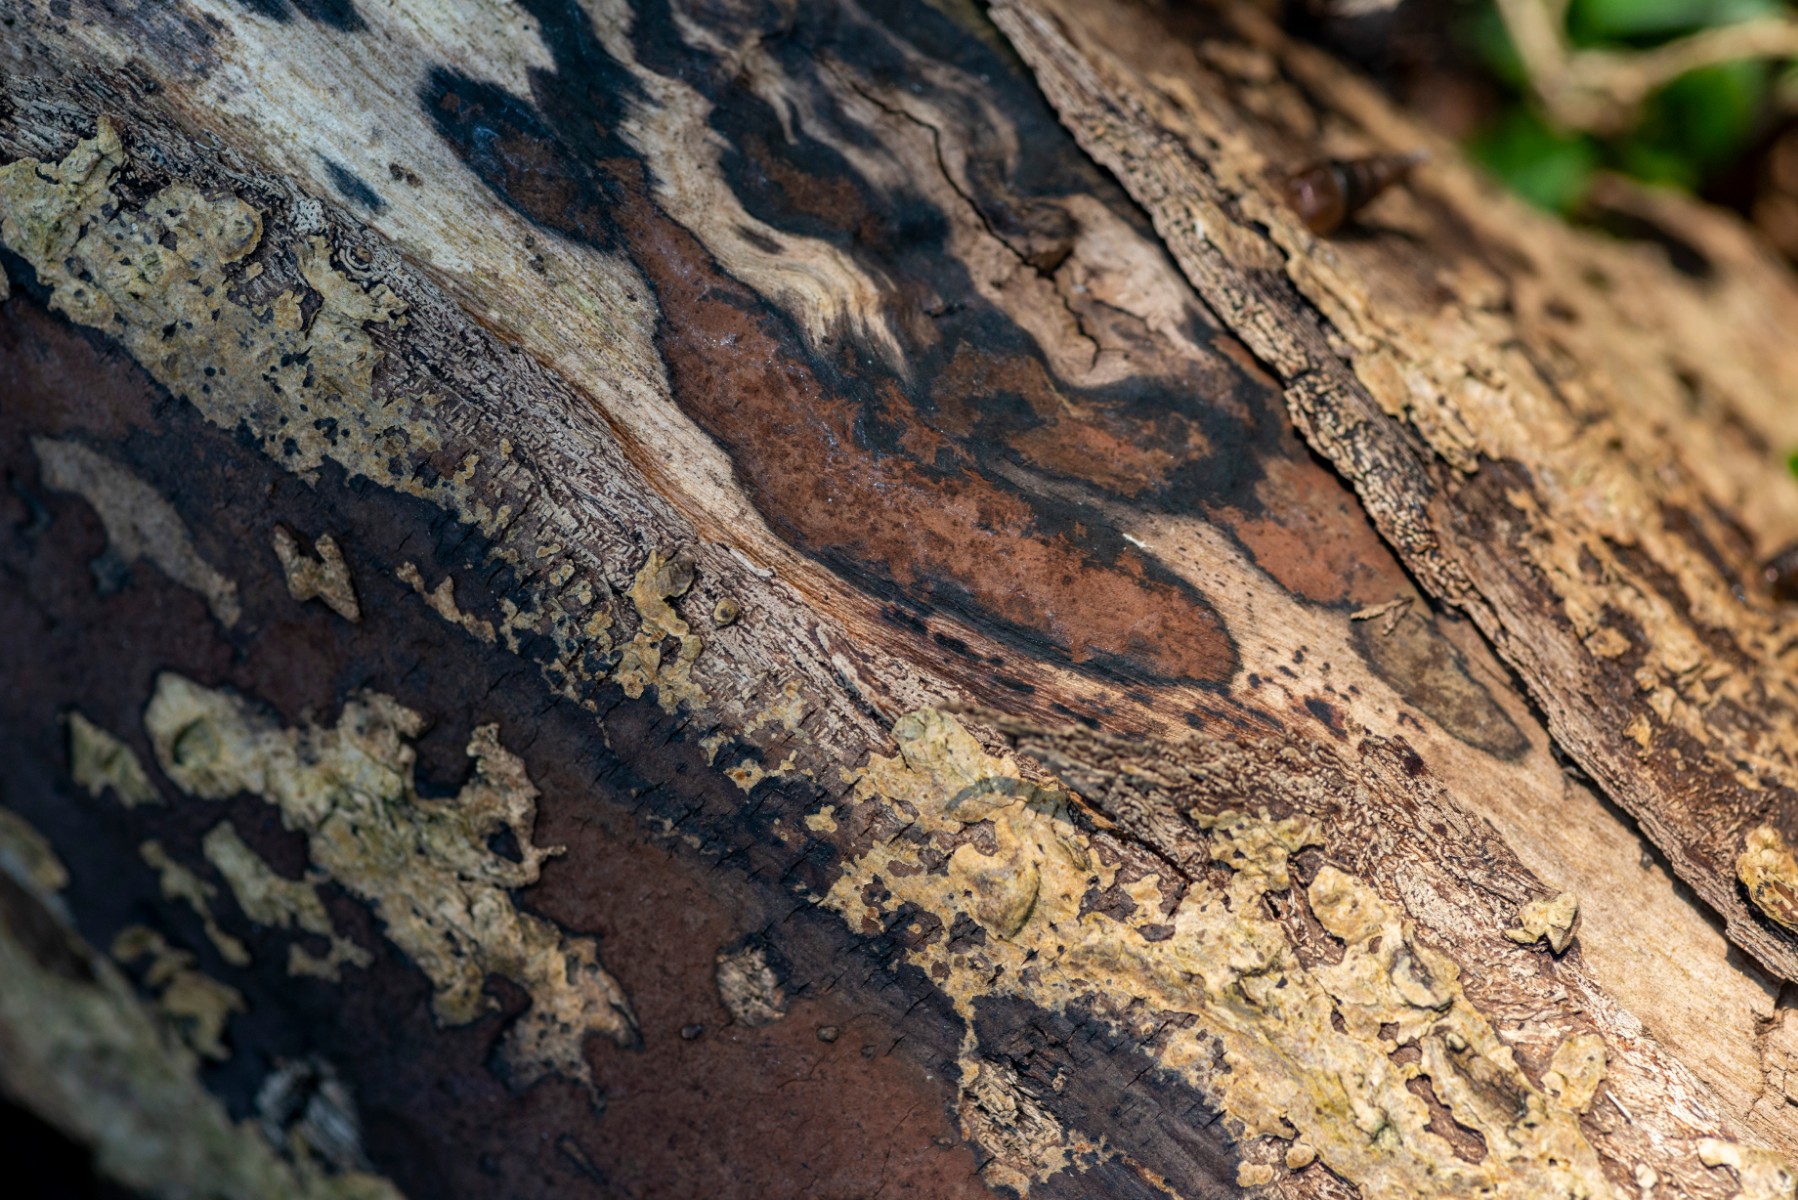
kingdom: Fungi
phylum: Ascomycota
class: Sordariomycetes
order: Xylariales
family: Hypoxylaceae
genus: Hypoxylon
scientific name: Hypoxylon petriniae
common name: nedsænket kulbær
